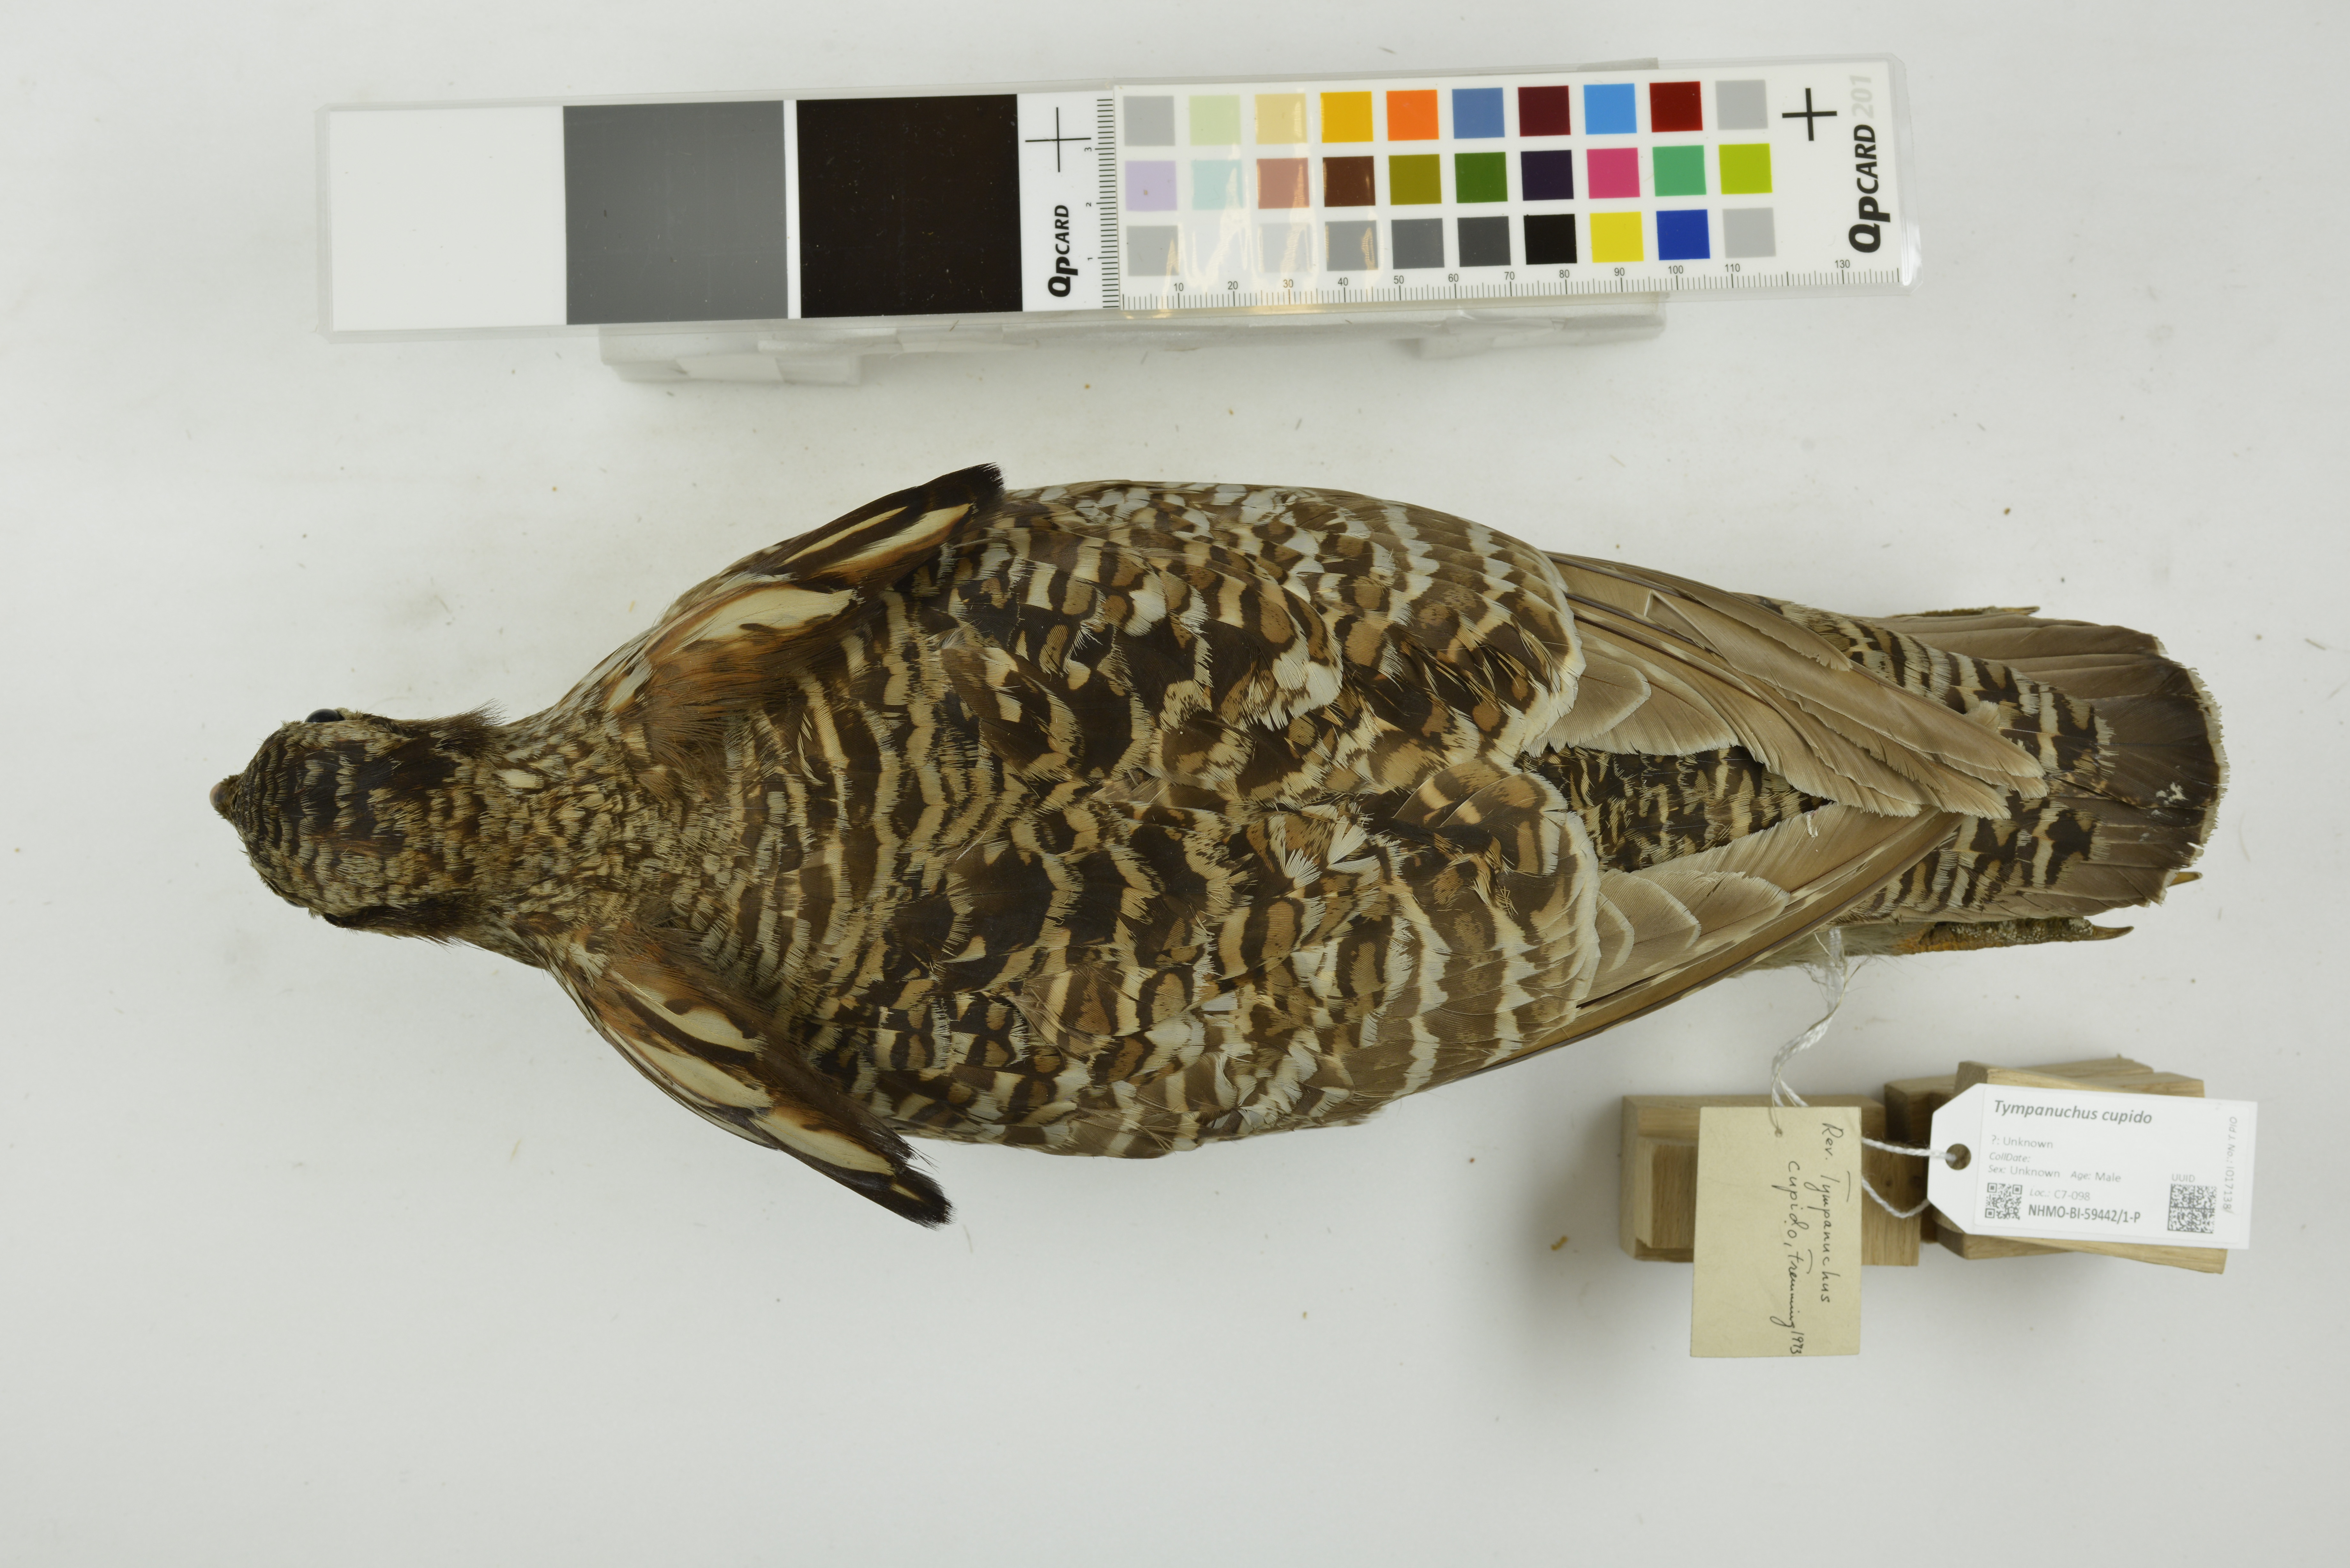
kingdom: Animalia
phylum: Chordata
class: Aves
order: Galliformes
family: Phasianidae
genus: Tympanuchus
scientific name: Tympanuchus cupido
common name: Greater prairie chicken
